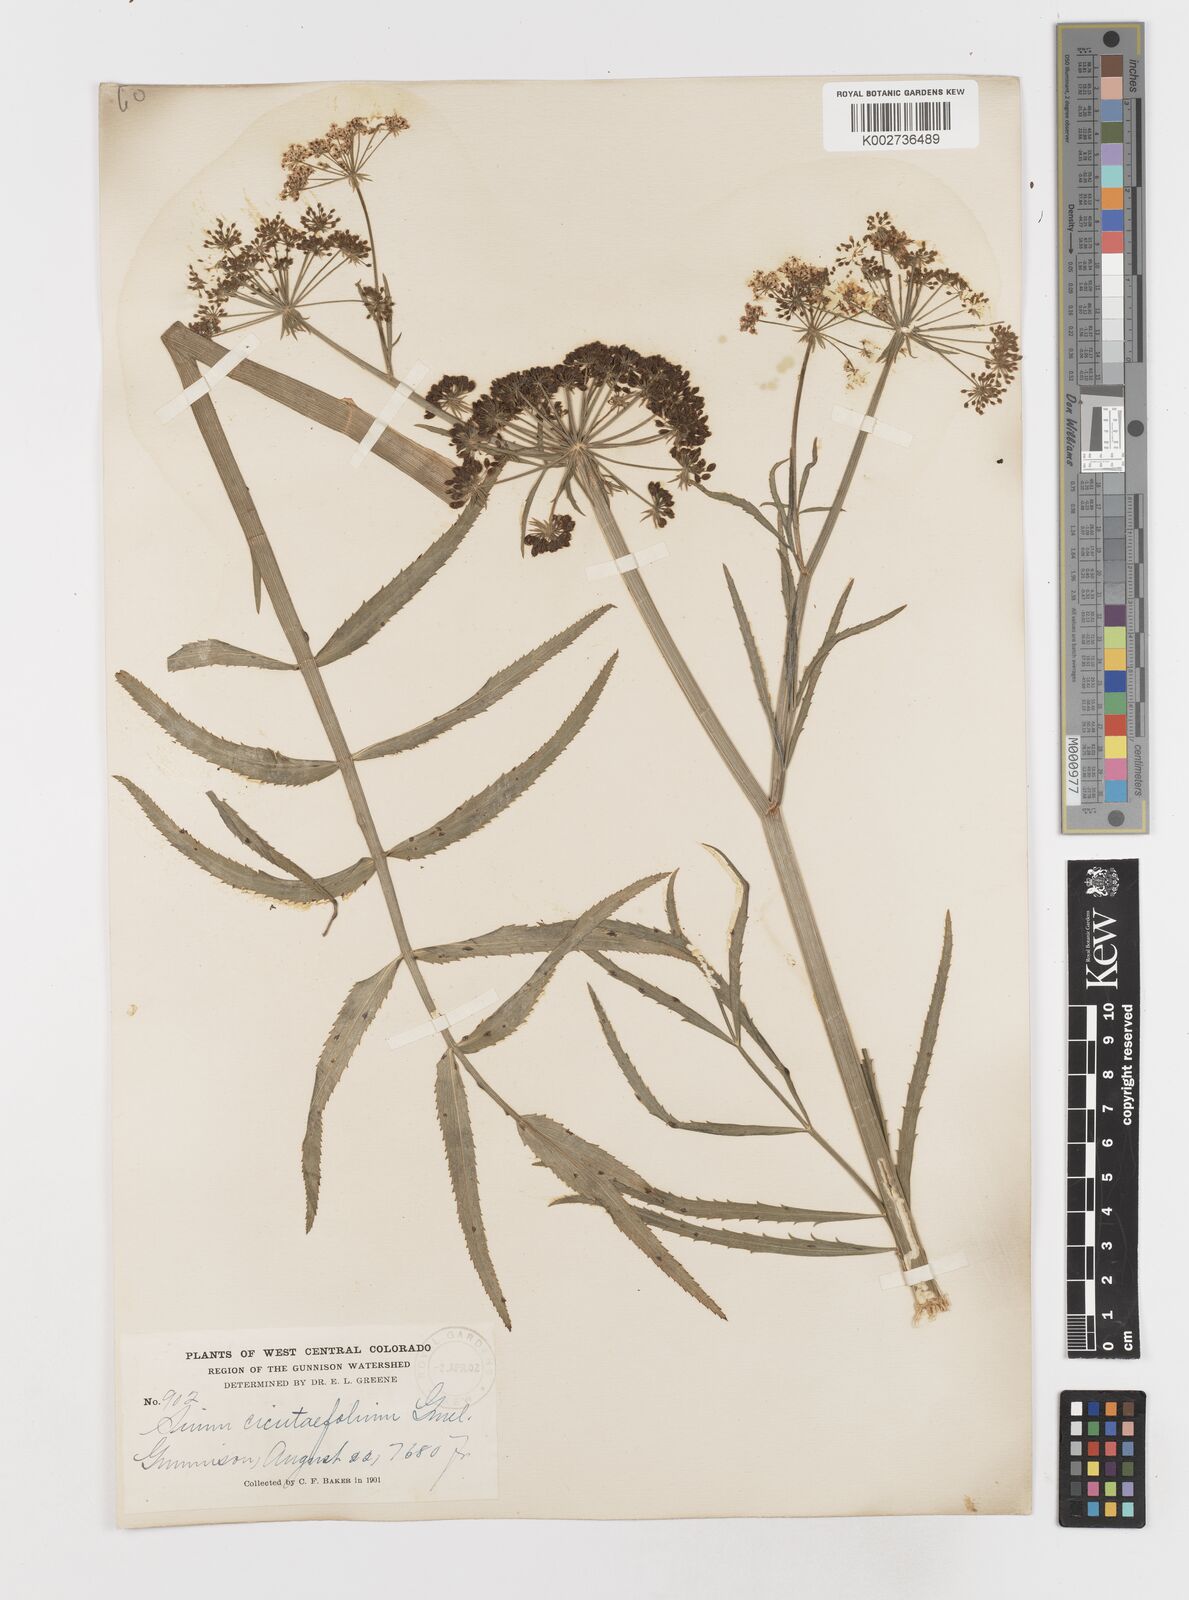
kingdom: Plantae
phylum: Tracheophyta
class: Magnoliopsida
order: Apiales
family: Apiaceae
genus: Sium
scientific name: Sium suave
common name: Hemlock water-parsnip
